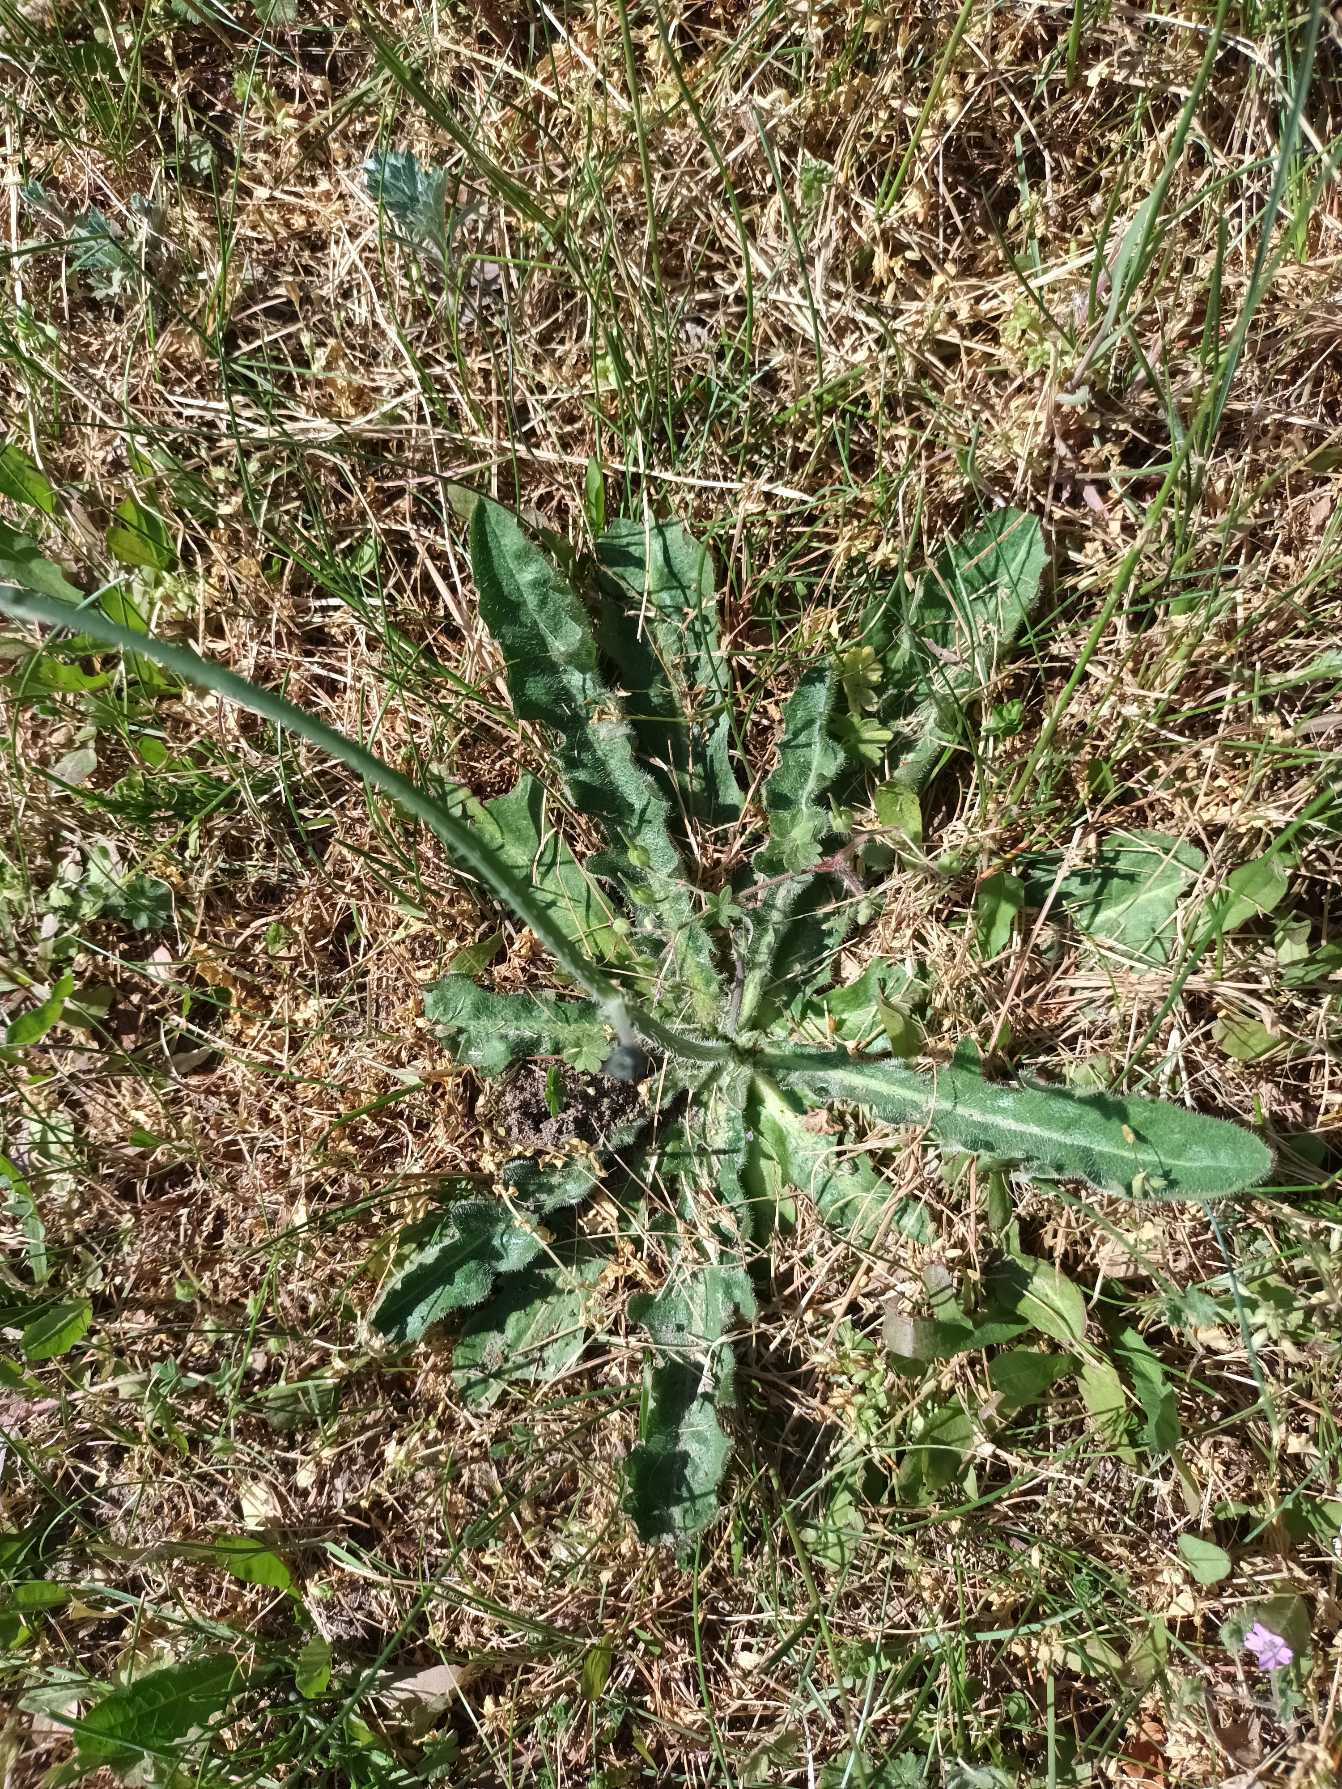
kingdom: Plantae
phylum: Tracheophyta
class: Magnoliopsida
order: Asterales
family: Asteraceae
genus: Hypochaeris
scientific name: Hypochaeris radicata
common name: Almindelig kongepen
